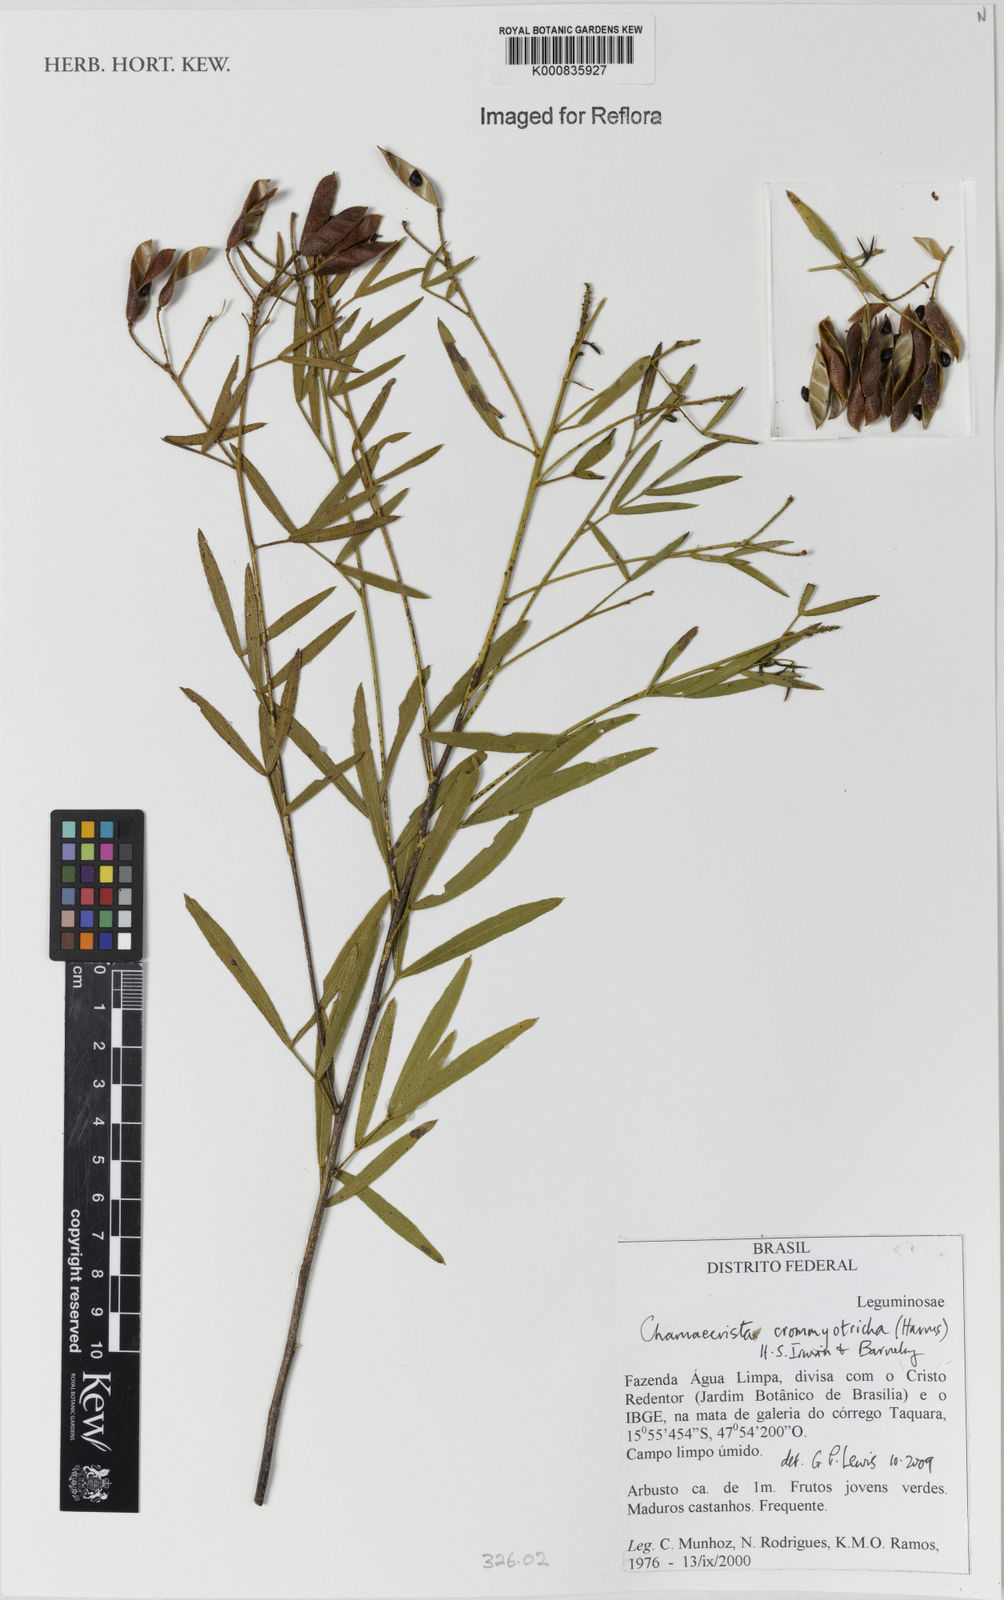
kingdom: Plantae
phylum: Tracheophyta
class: Magnoliopsida
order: Fabales
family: Fabaceae
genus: Chamaecrista
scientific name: Chamaecrista crommyotricha
